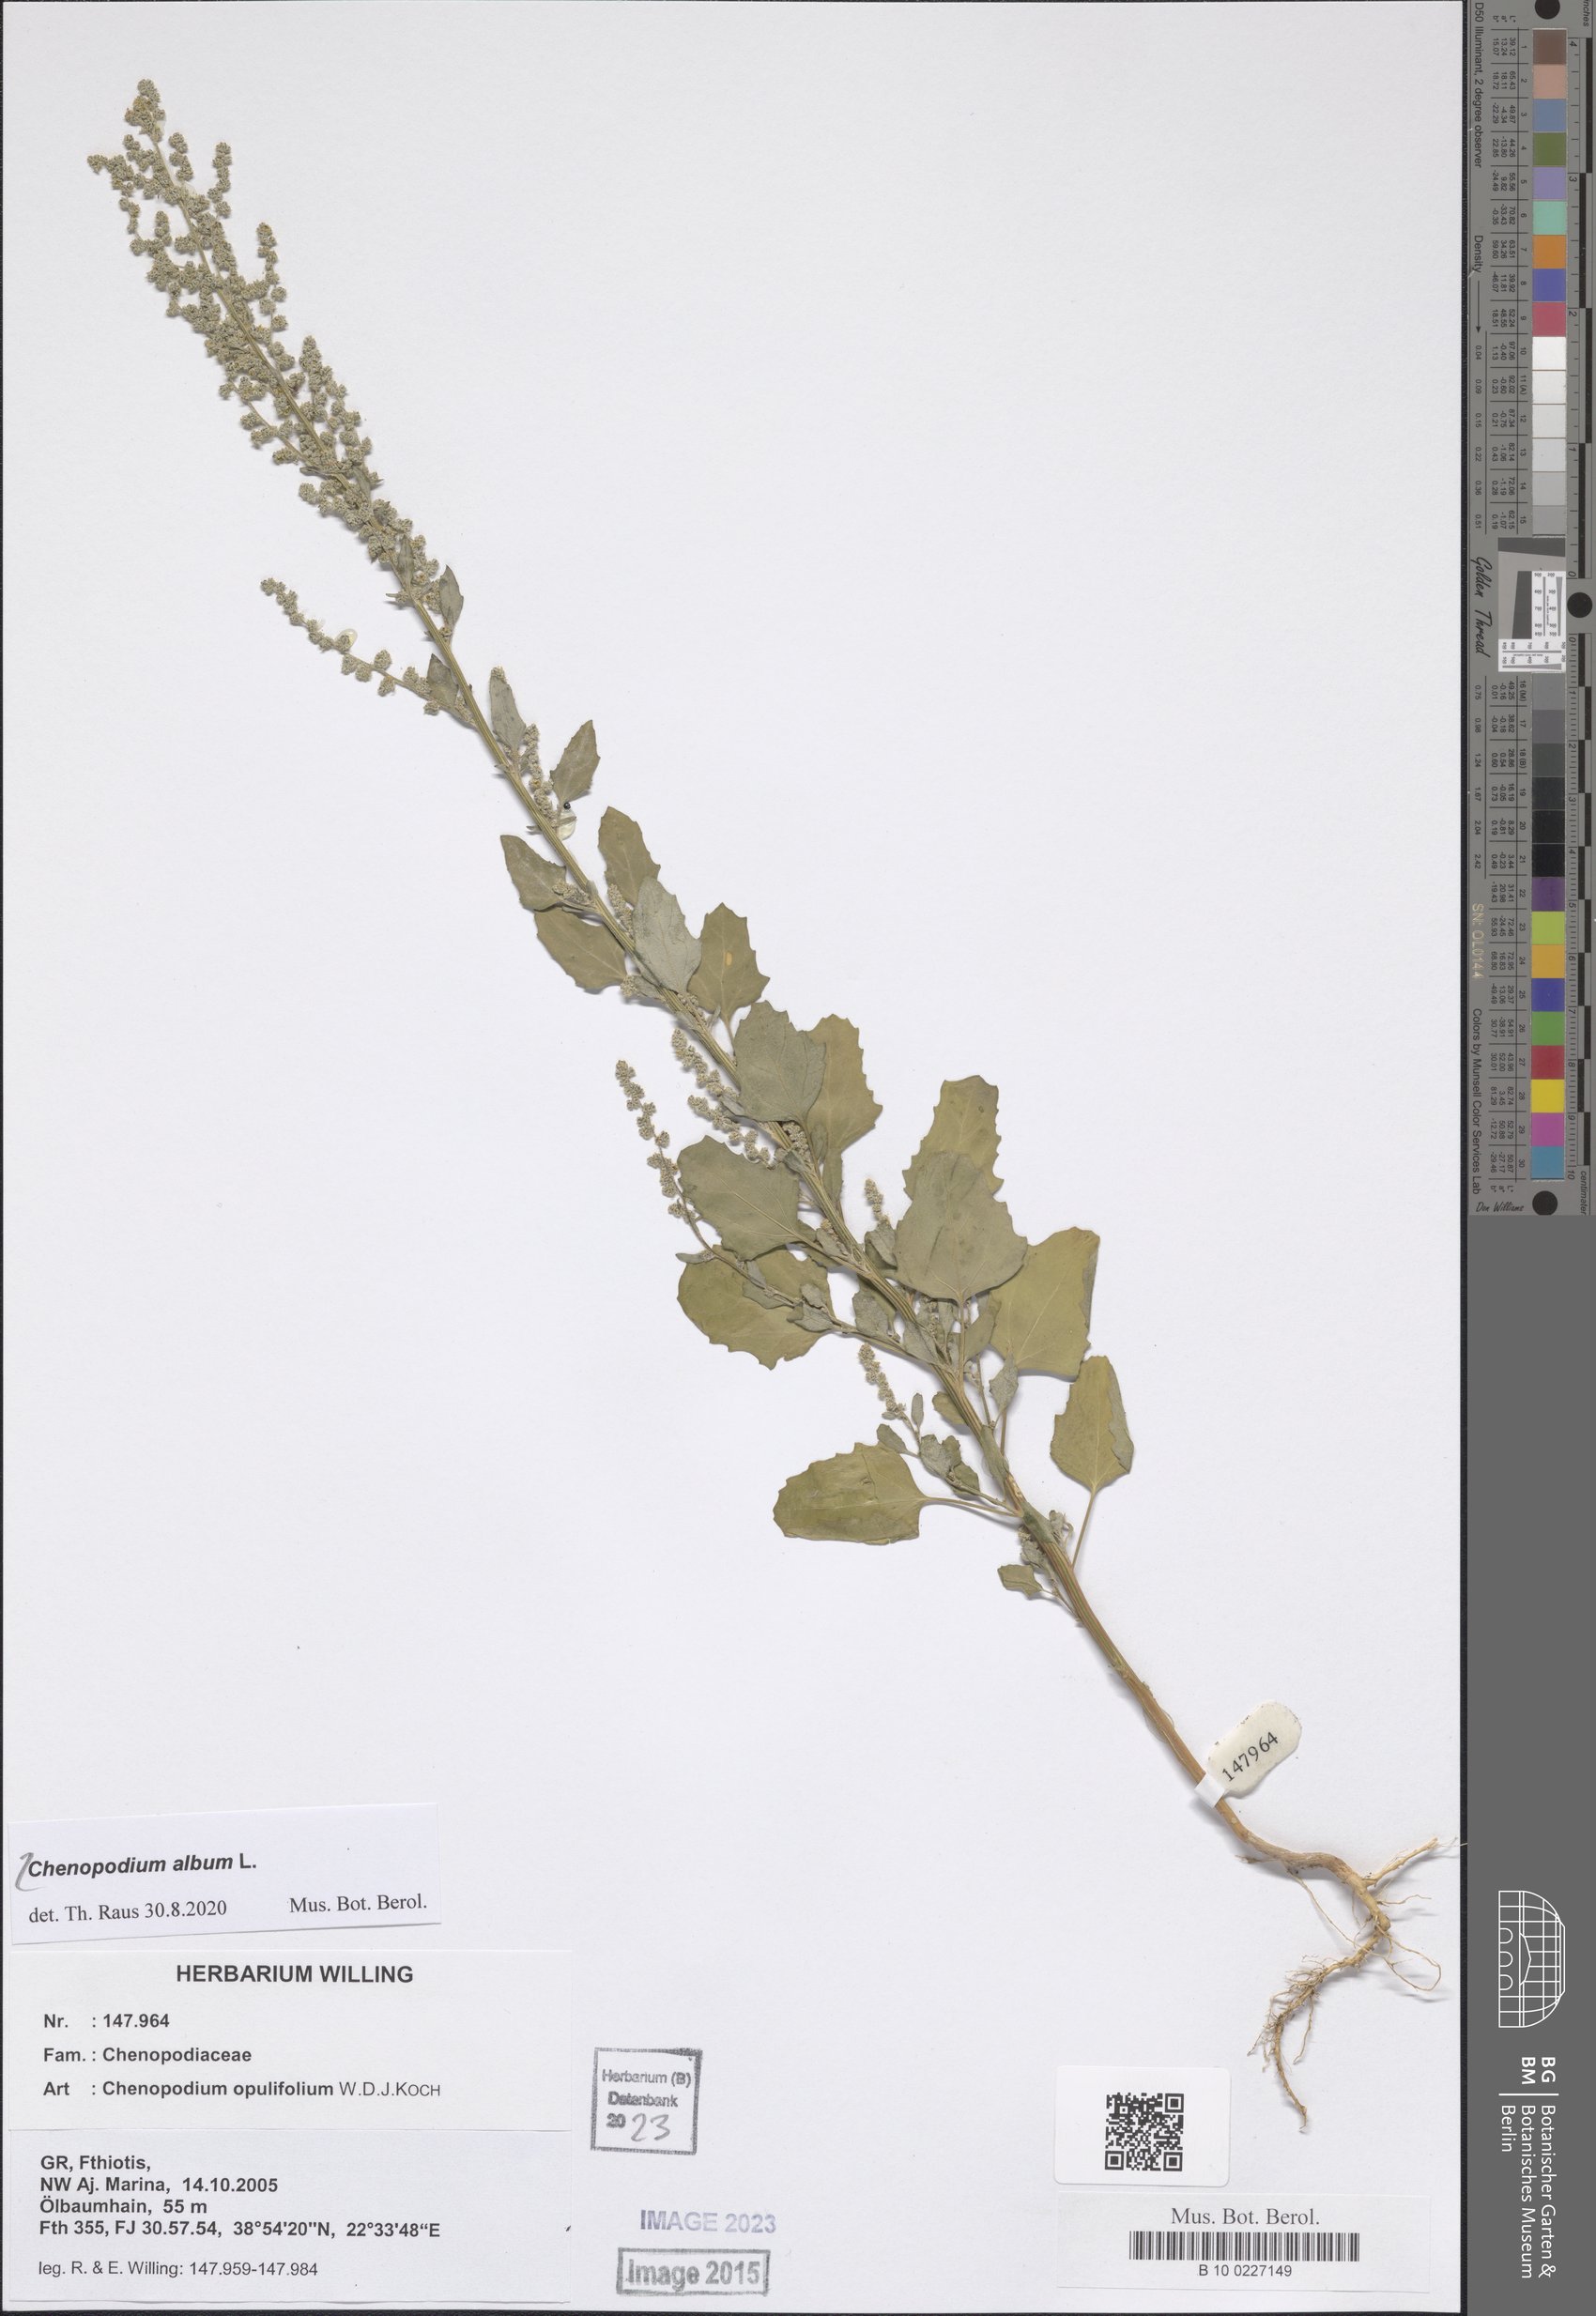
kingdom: Plantae
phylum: Tracheophyta
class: Magnoliopsida
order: Caryophyllales
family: Amaranthaceae
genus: Chenopodium
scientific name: Chenopodium album
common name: Fat-hen
